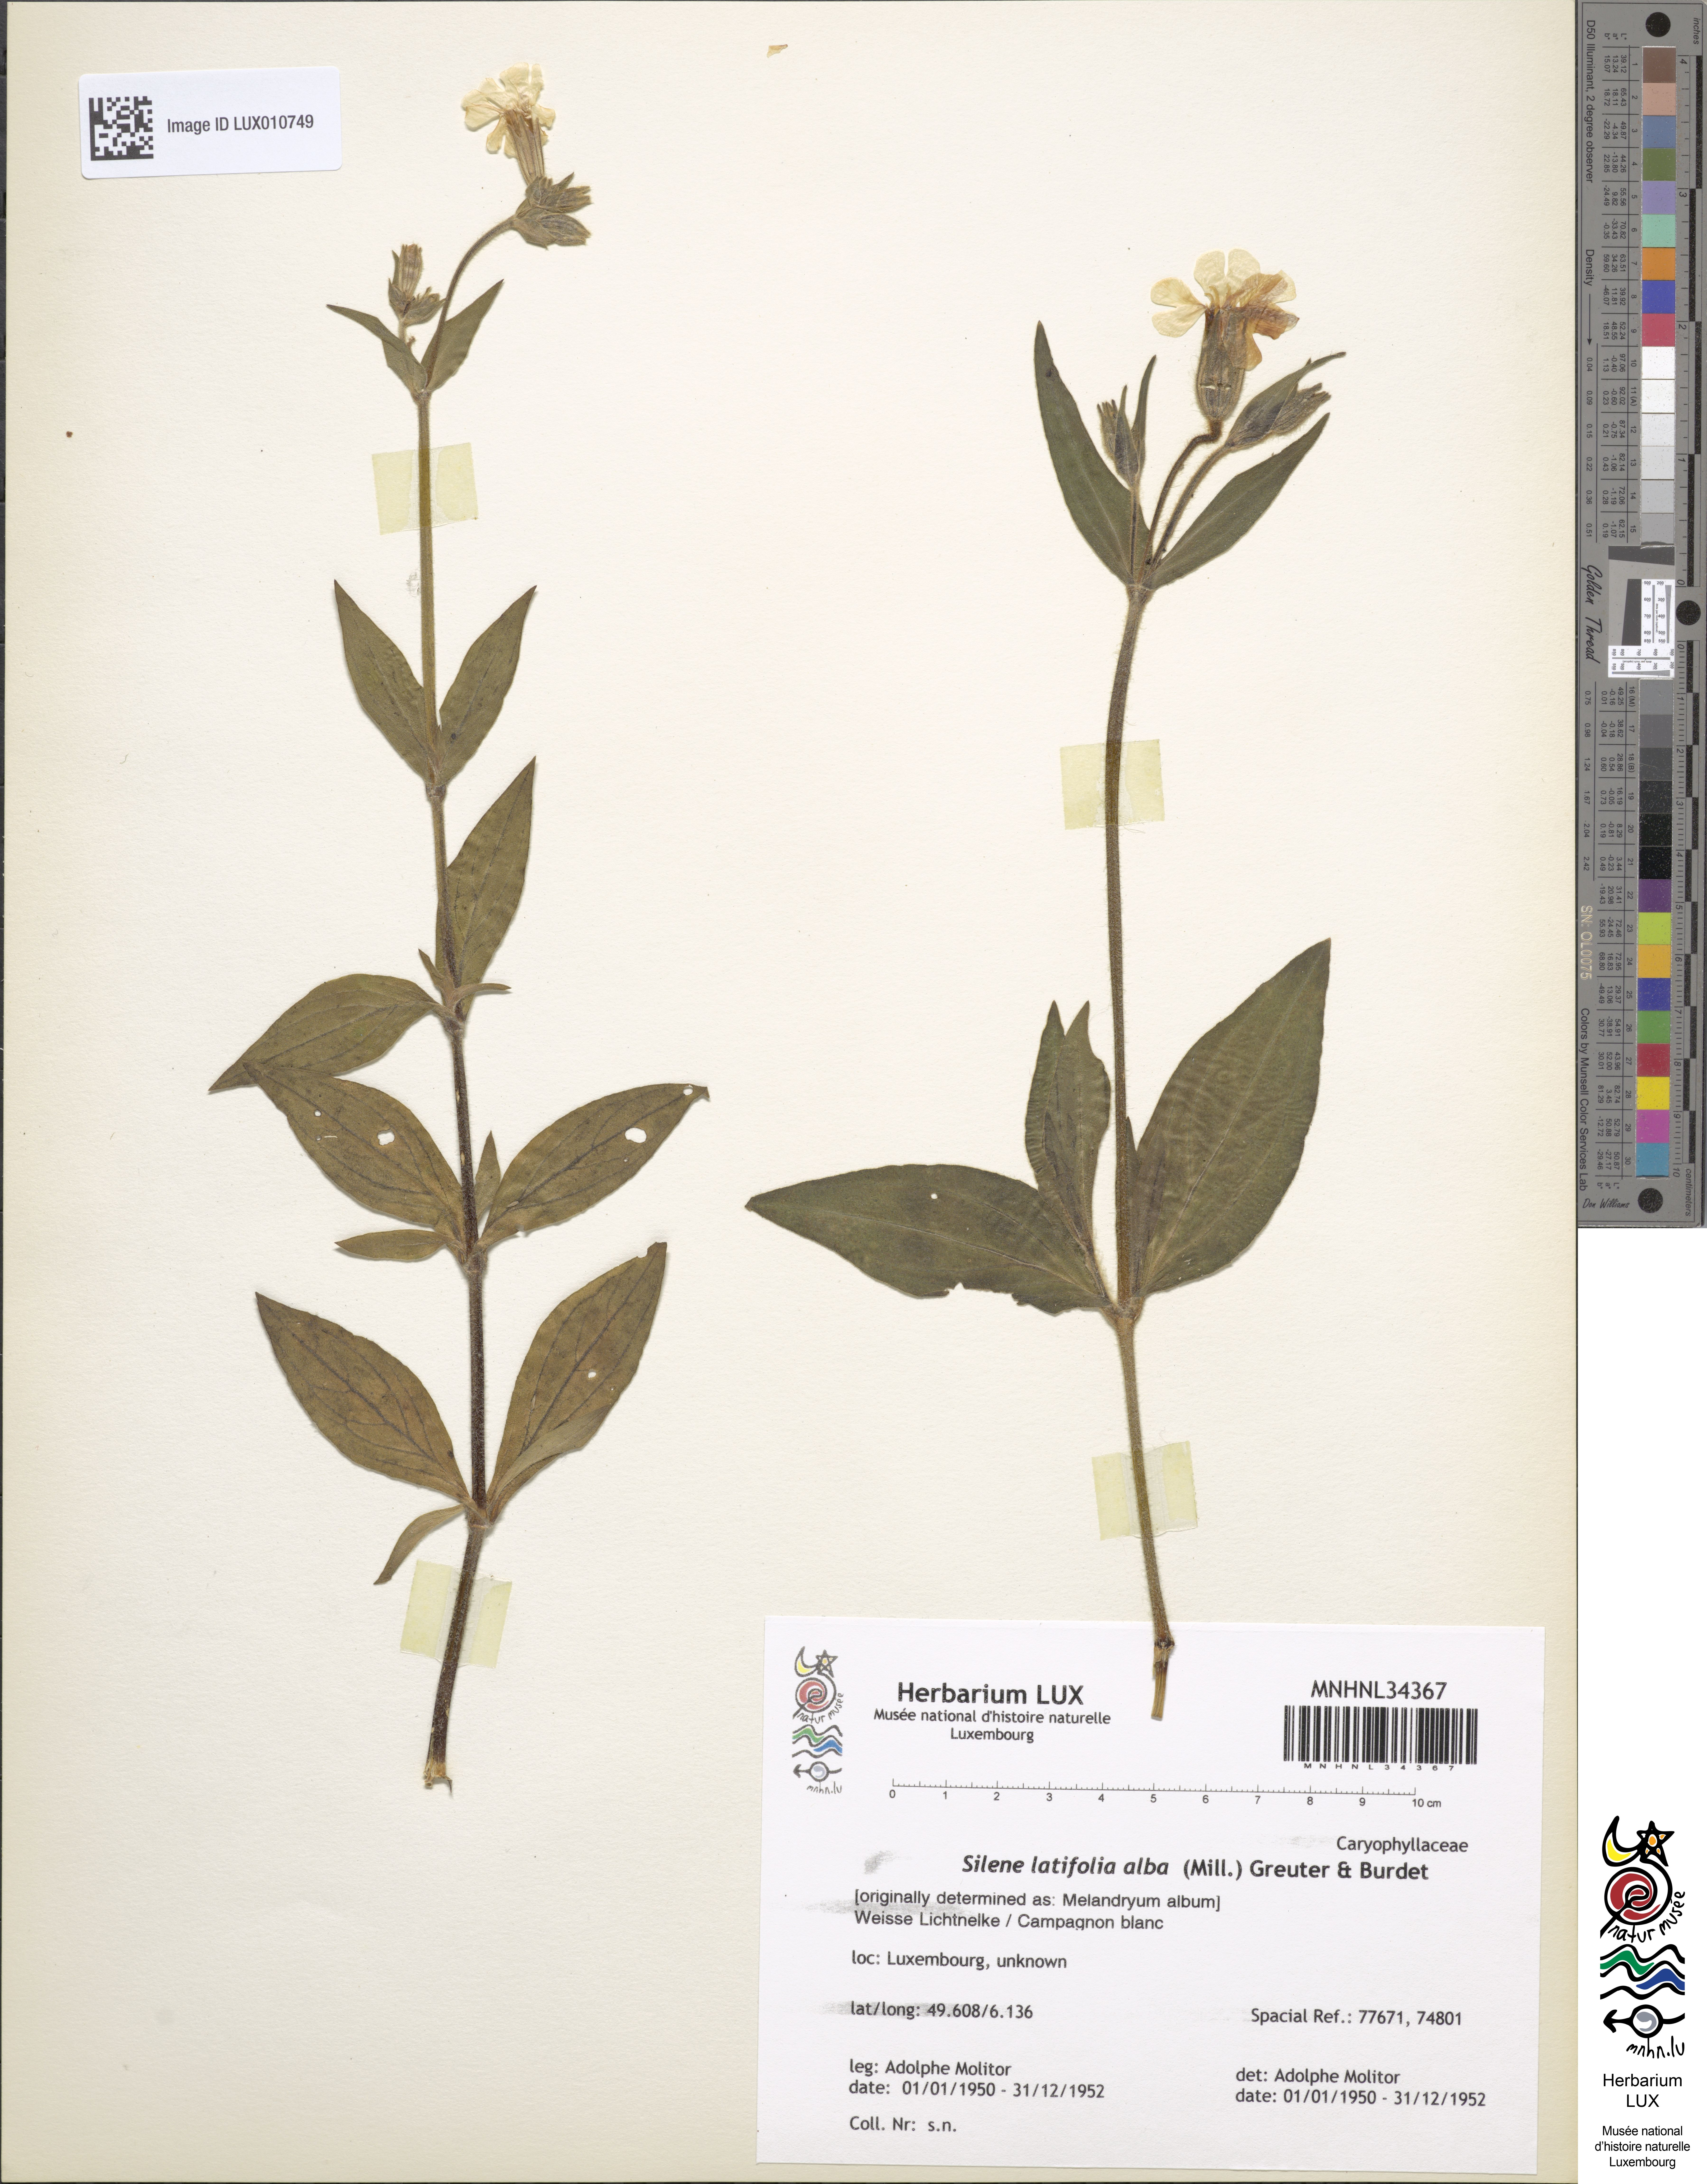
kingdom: Plantae
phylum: Tracheophyta
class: Magnoliopsida
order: Caryophyllales
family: Caryophyllaceae
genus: Silene
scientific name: Silene latifolia
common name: White campion
